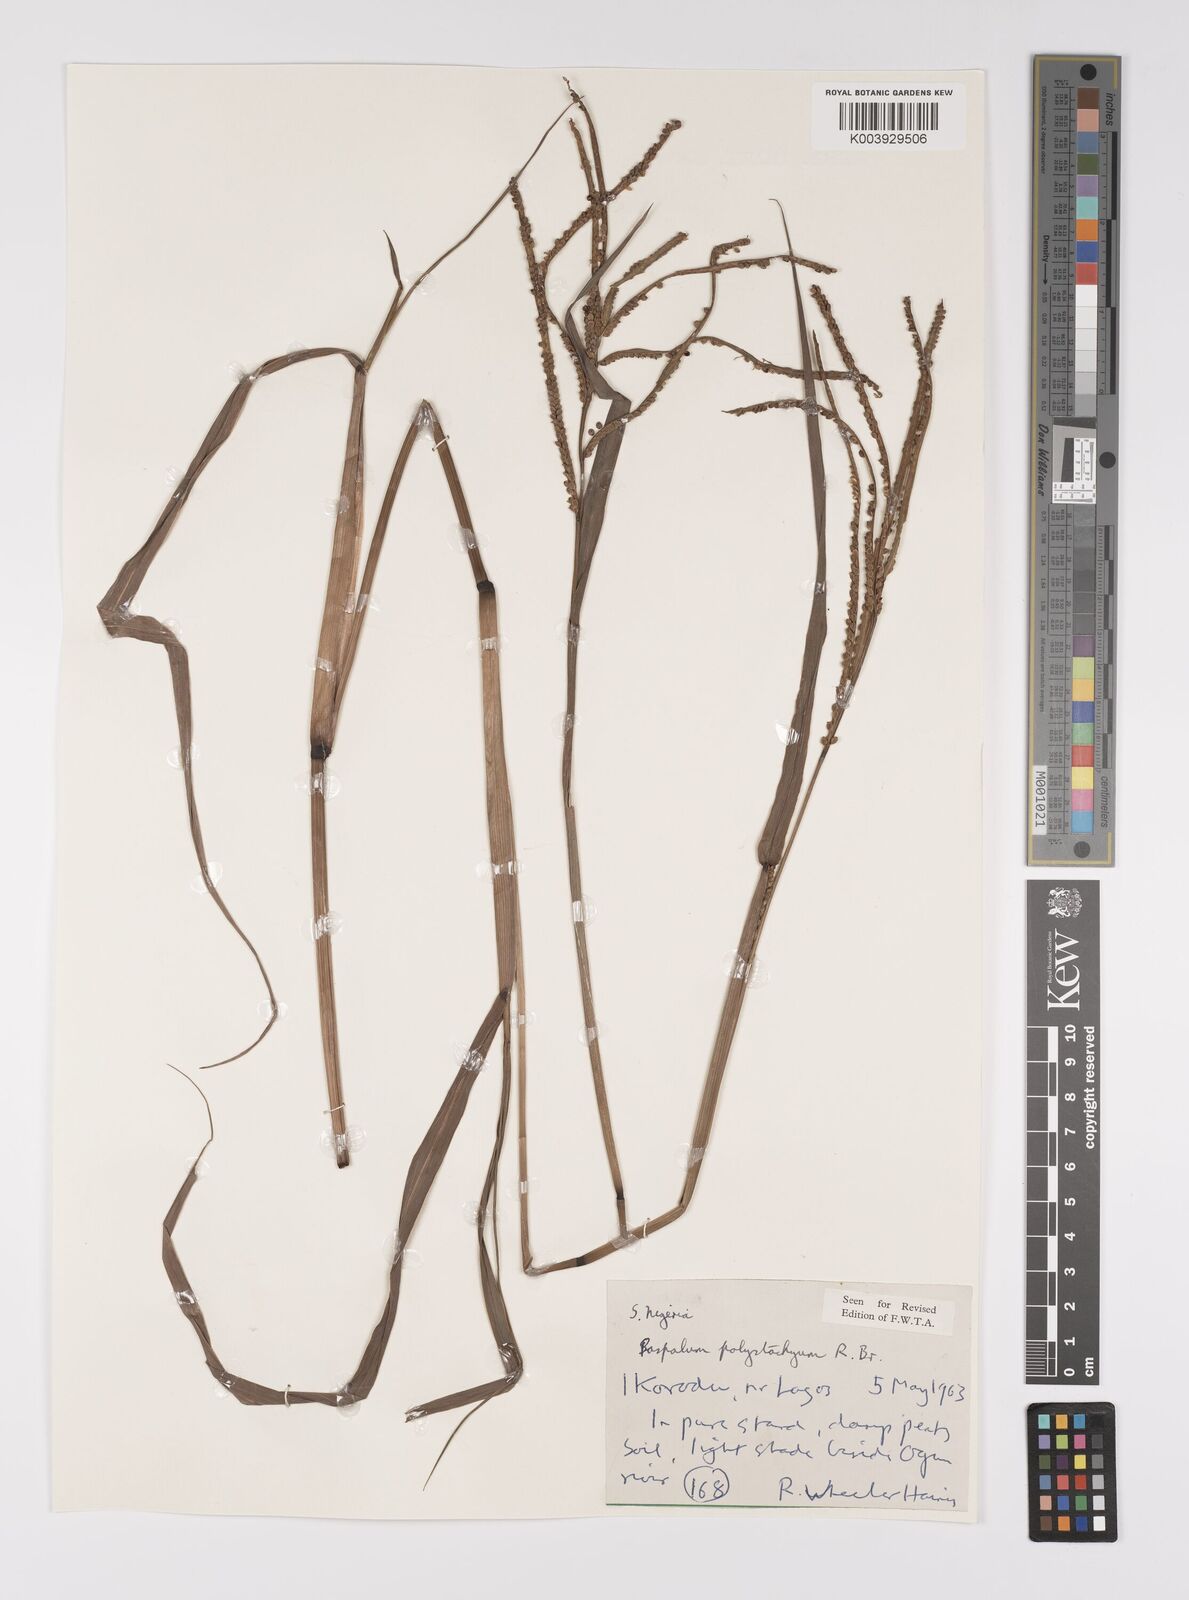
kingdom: Plantae
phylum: Tracheophyta
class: Liliopsida
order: Poales
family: Poaceae
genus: Paspalum
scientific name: Paspalum scrobiculatum
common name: Kodo millet
